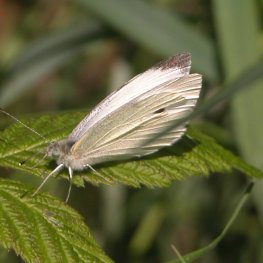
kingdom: Animalia
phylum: Arthropoda
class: Insecta
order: Lepidoptera
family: Pieridae
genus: Pieris
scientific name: Pieris rapae
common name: Cabbage White
